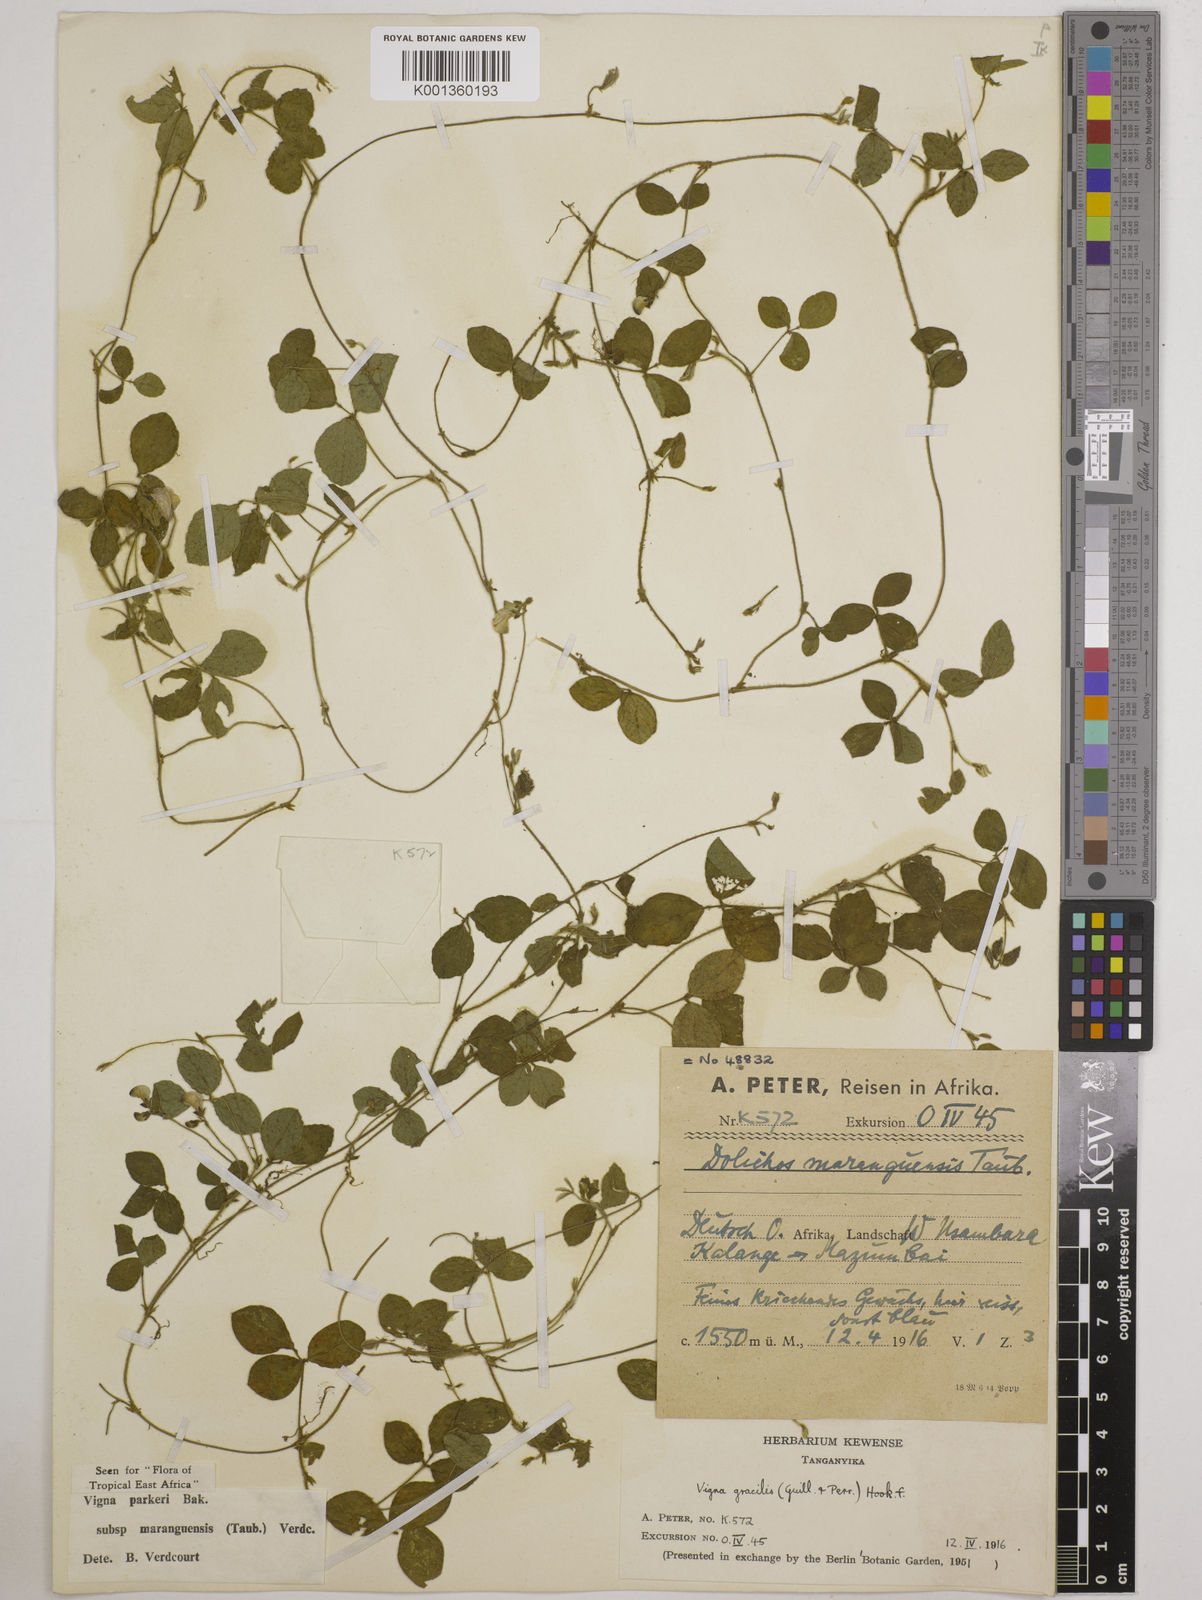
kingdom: Plantae
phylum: Tracheophyta
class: Magnoliopsida
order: Fabales
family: Fabaceae
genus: Vigna
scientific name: Vigna
